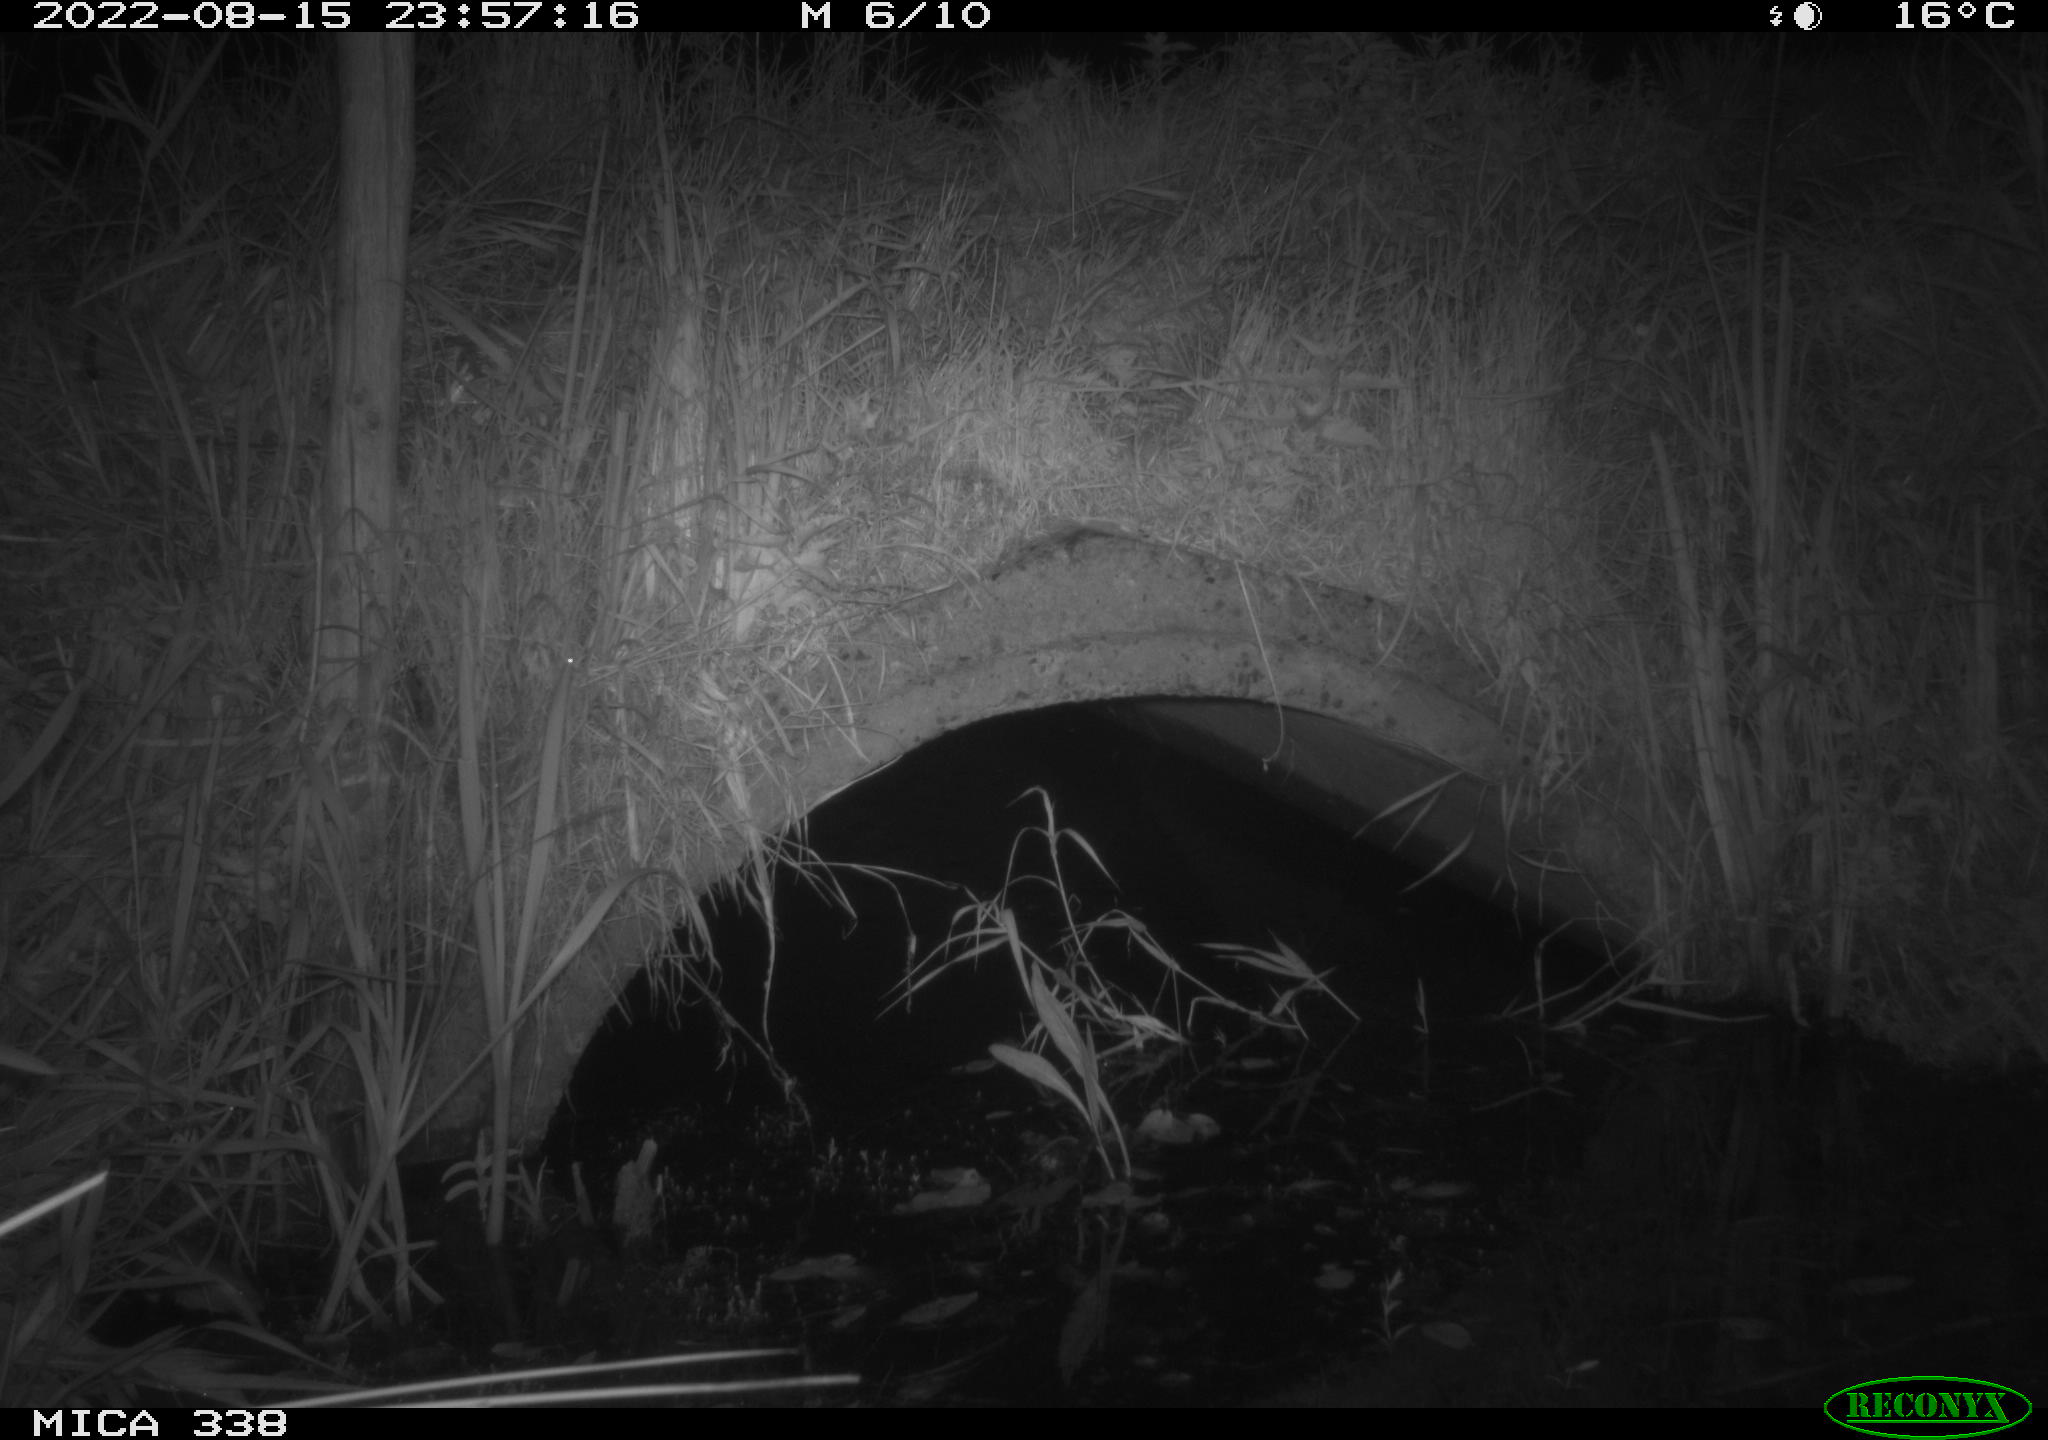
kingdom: Animalia
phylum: Chordata
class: Mammalia
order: Rodentia
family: Muridae
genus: Rattus
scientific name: Rattus norvegicus
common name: Brown rat
